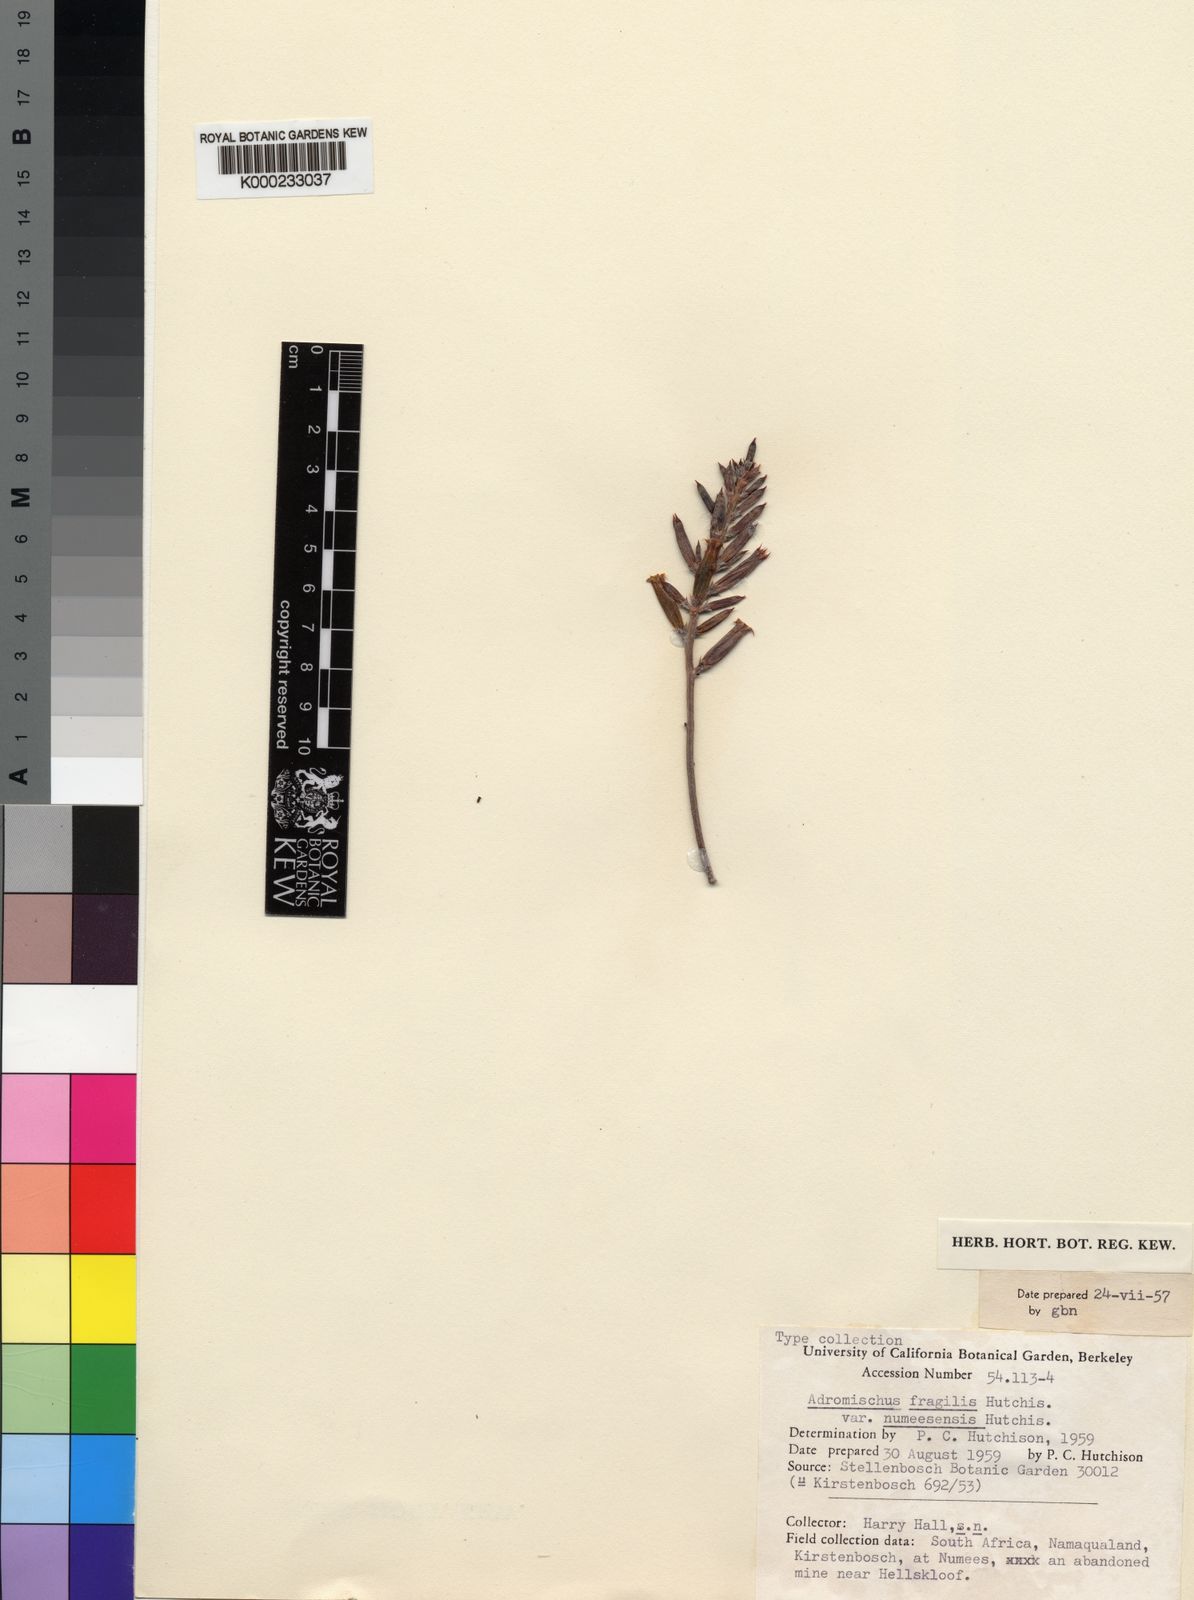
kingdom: Plantae
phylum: Tracheophyta
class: Magnoliopsida
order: Saxifragales
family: Crassulaceae
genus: Adromischus
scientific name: Adromischus filicaulis
